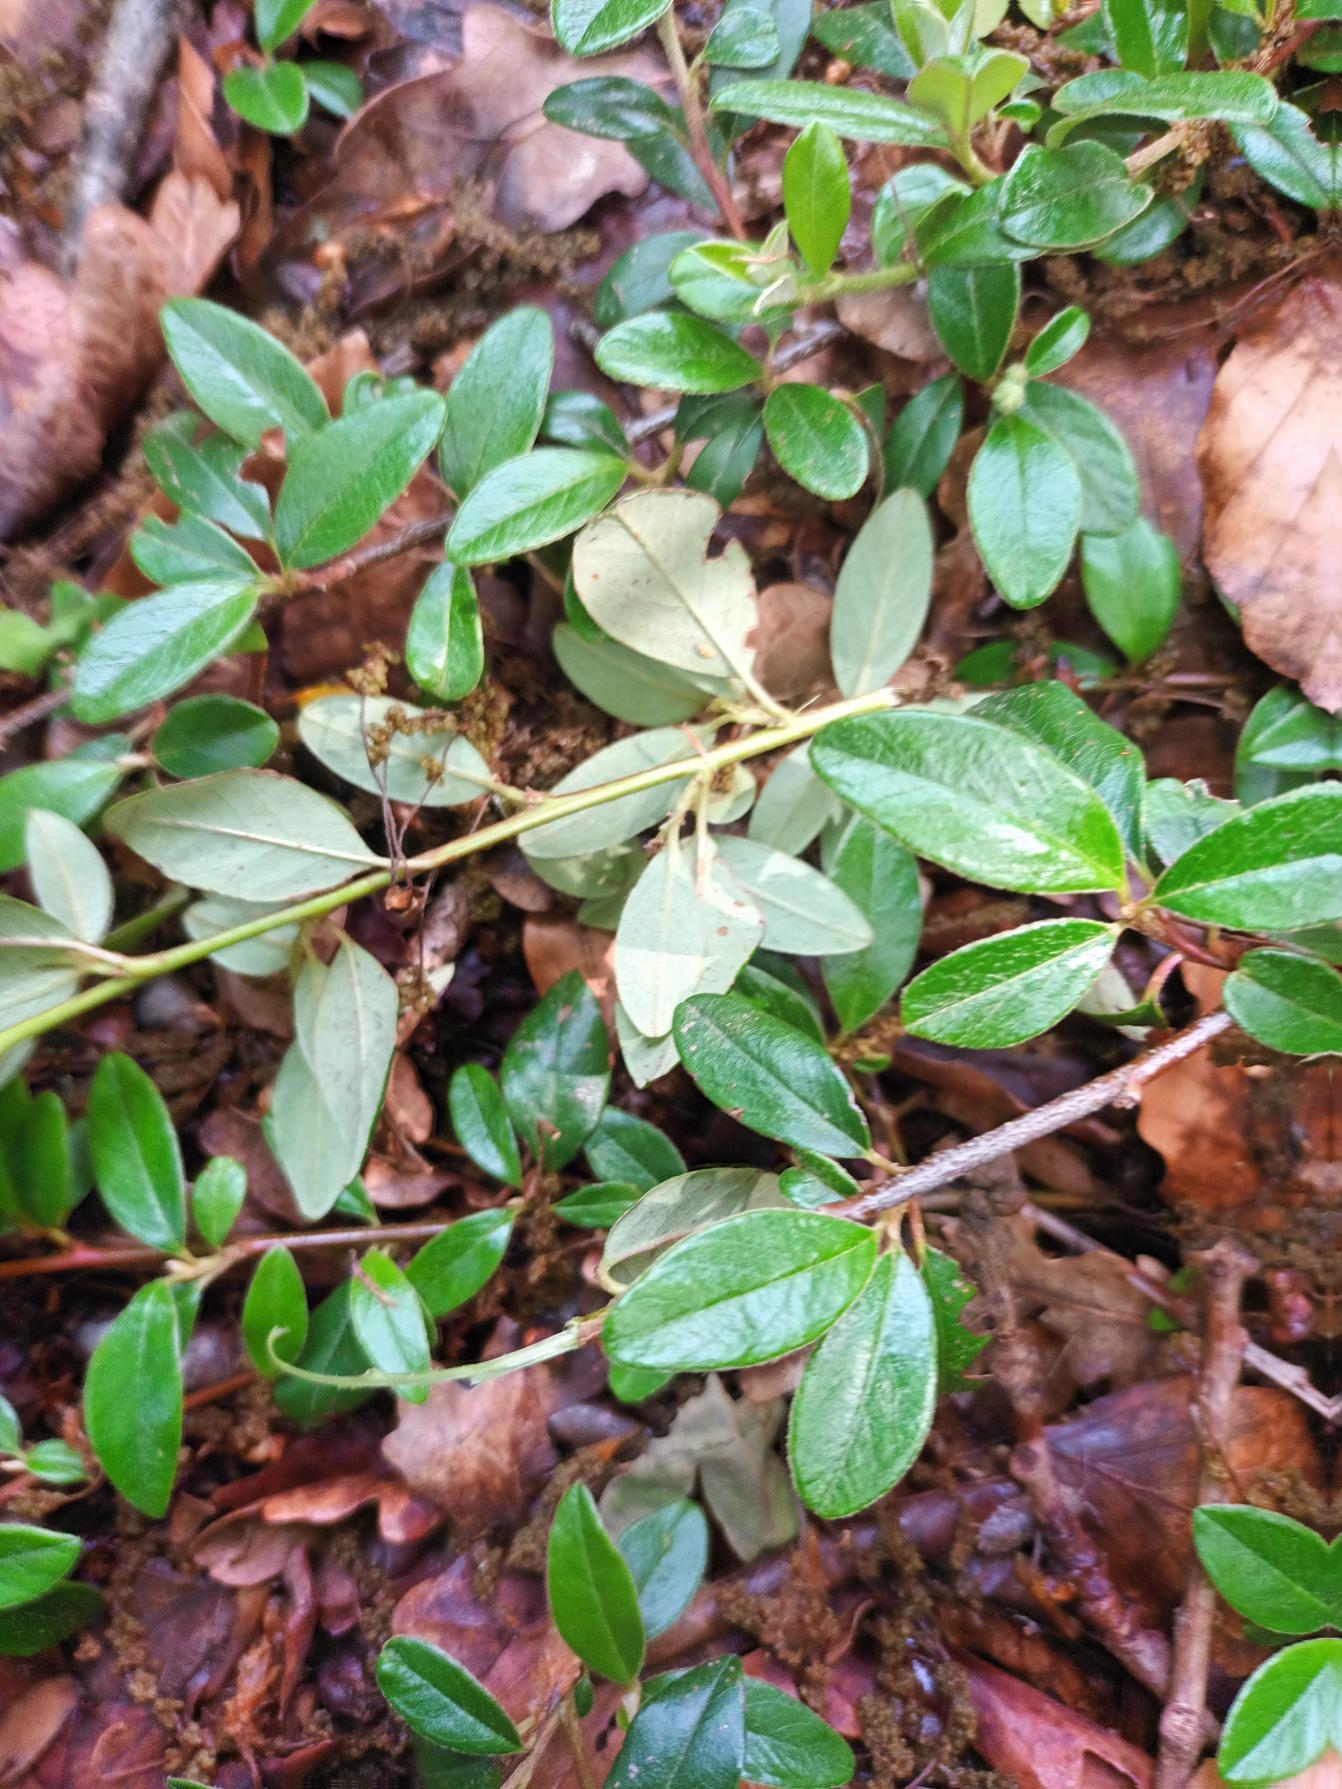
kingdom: Plantae
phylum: Tracheophyta
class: Magnoliopsida
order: Rosales
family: Rosaceae
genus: Cotoneaster
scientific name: Cotoneaster suecicus
